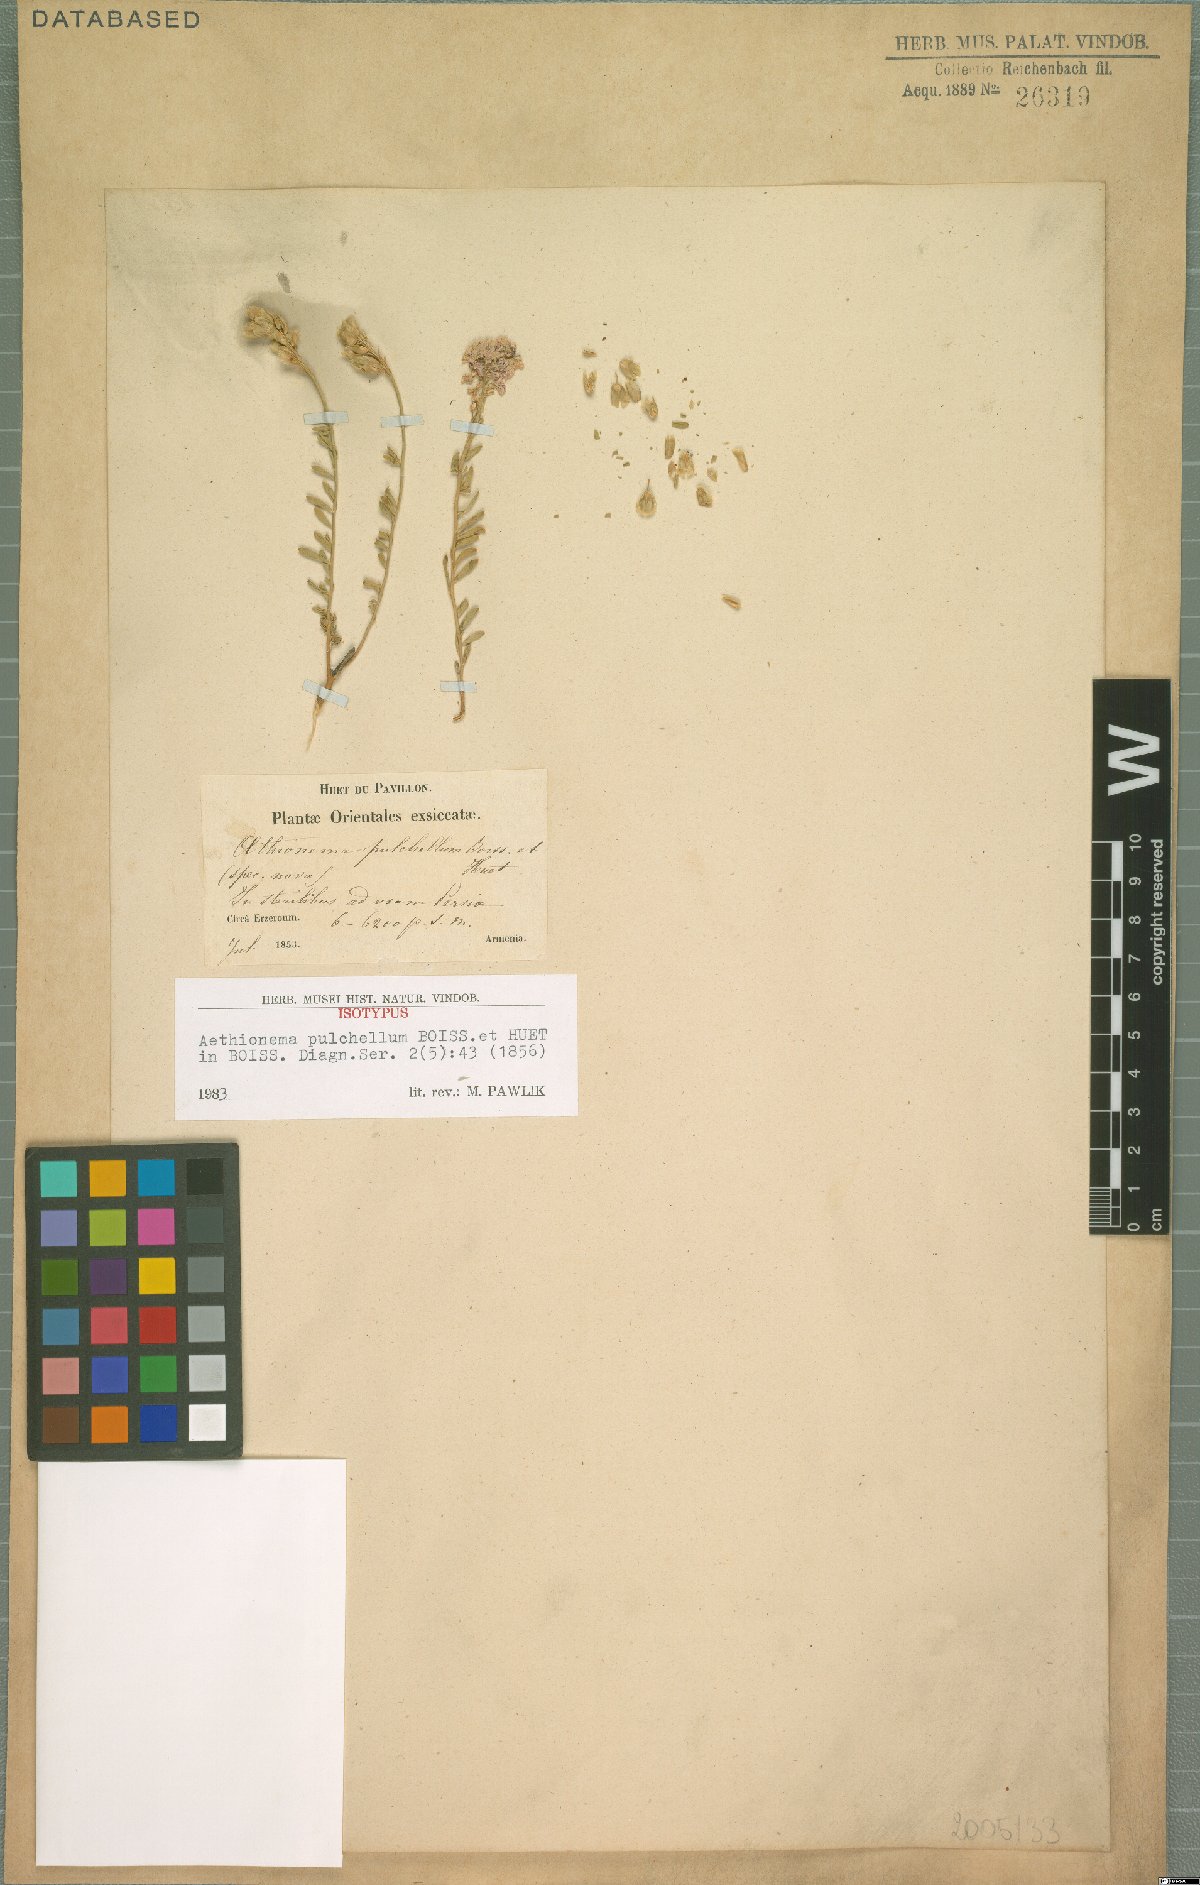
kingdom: Plantae
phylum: Tracheophyta
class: Magnoliopsida
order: Brassicales
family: Brassicaceae
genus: Aethionema
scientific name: Aethionema grandiflorum
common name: Persian stonecress
